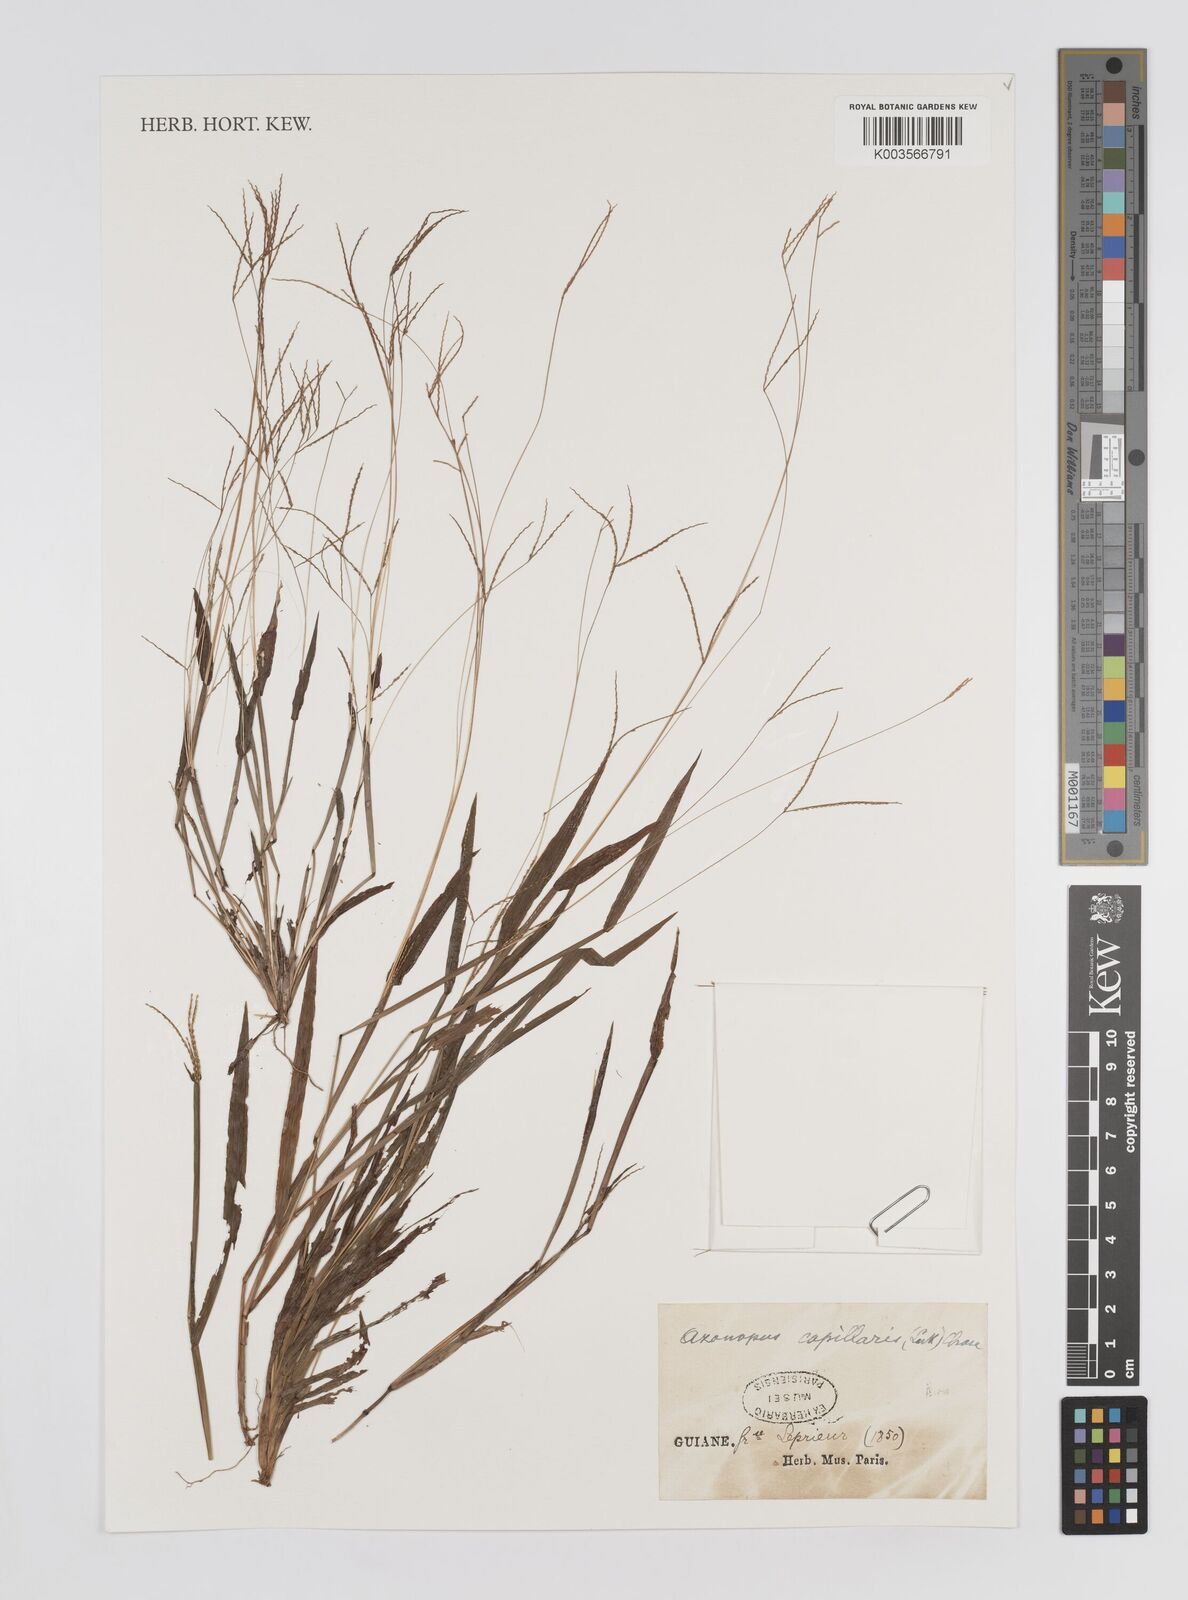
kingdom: Plantae
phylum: Tracheophyta
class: Liliopsida
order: Poales
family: Poaceae
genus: Axonopus
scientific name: Axonopus capillaris
